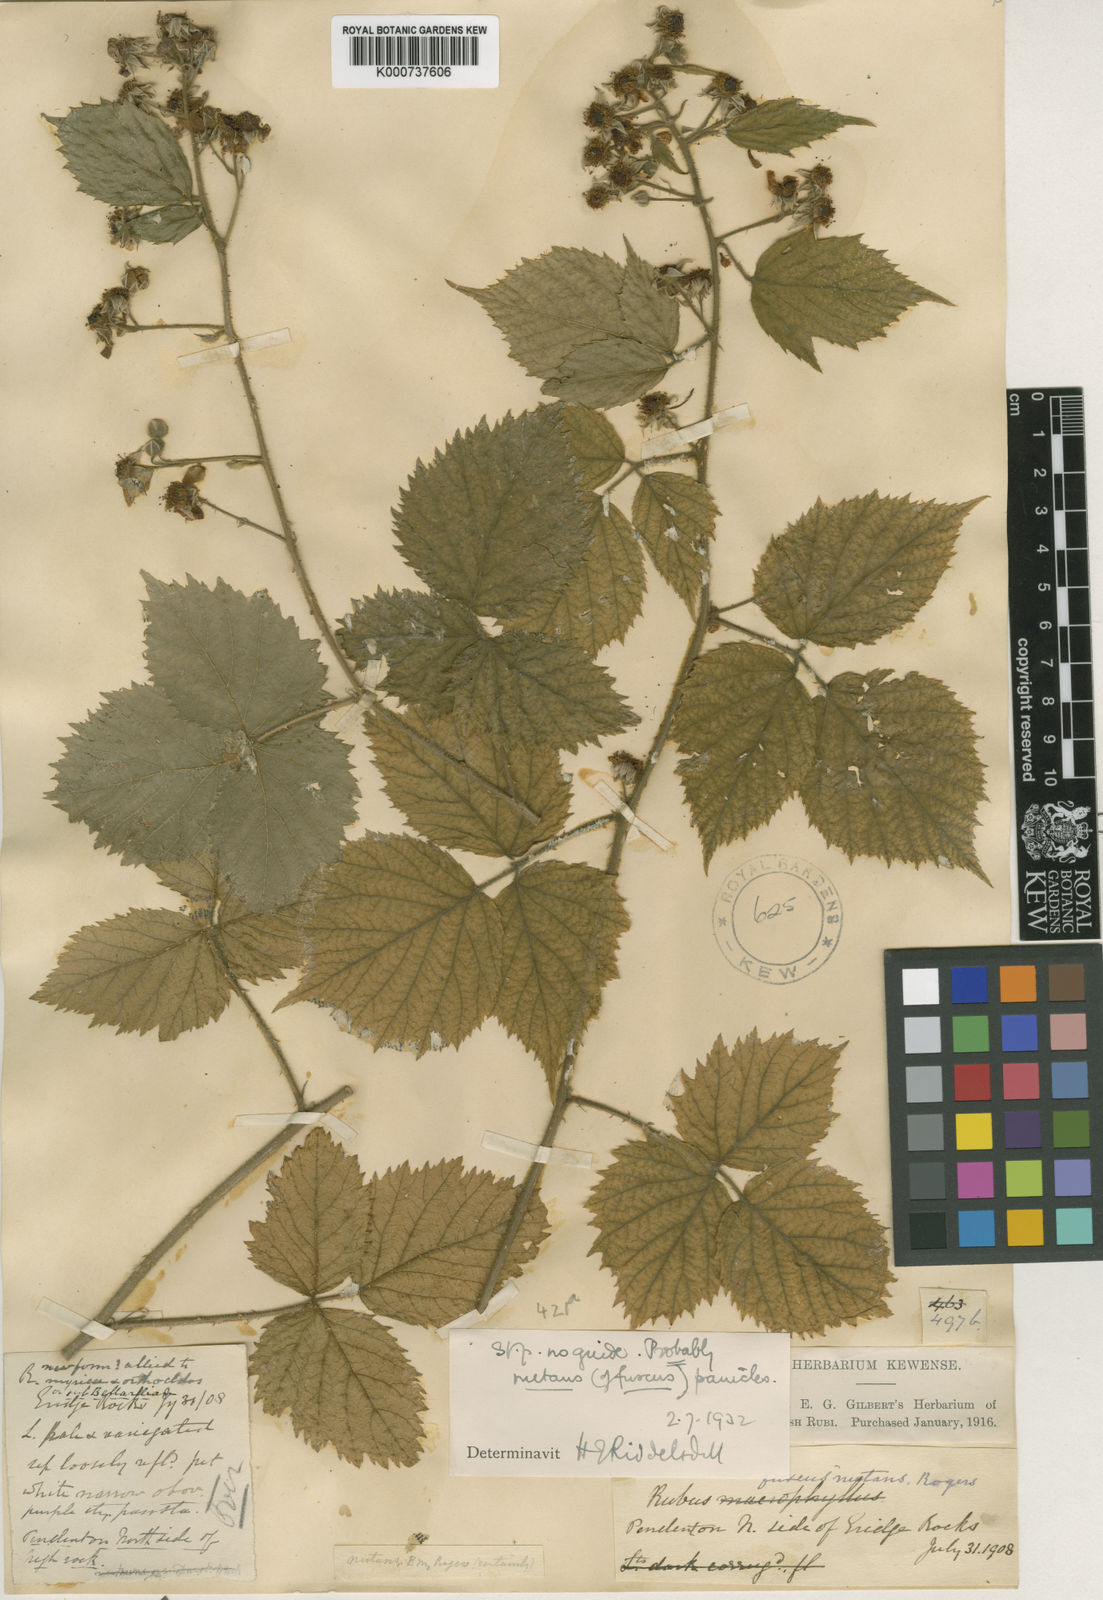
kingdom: Plantae
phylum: Tracheophyta
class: Magnoliopsida
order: Rosales
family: Rosaceae
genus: Rubus
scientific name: Rubus
